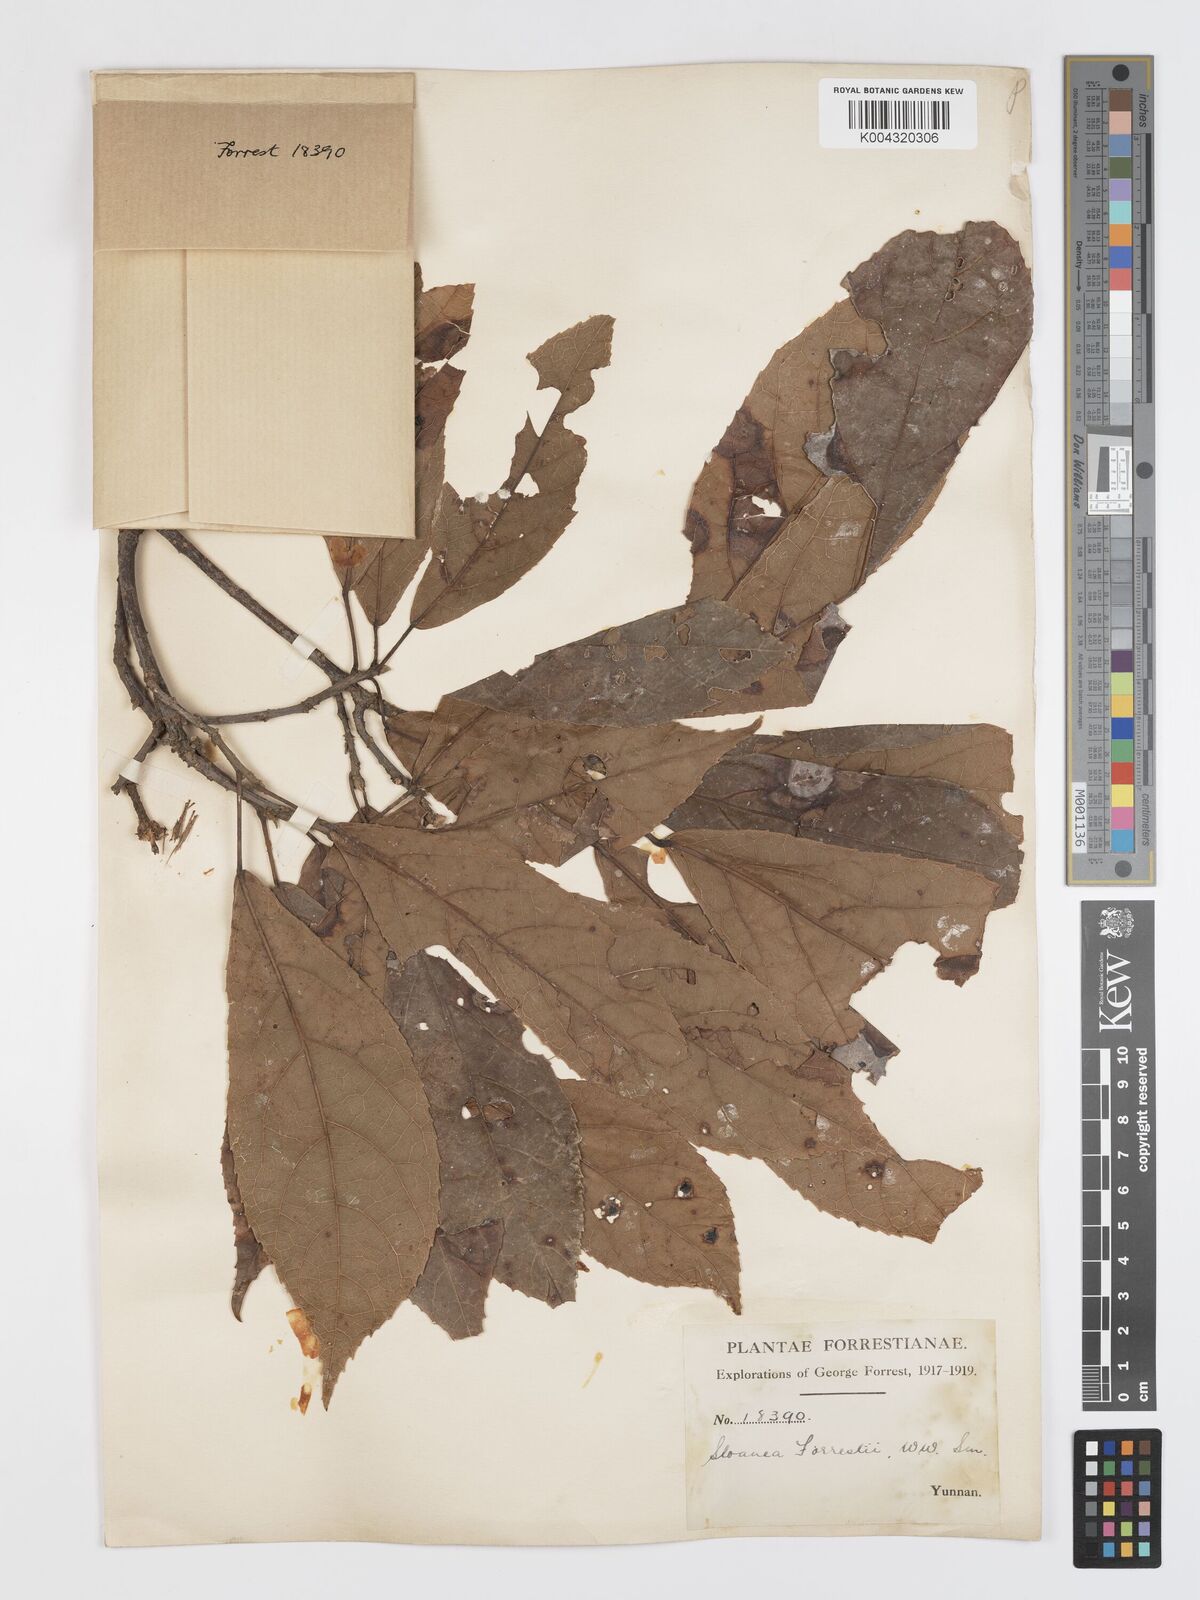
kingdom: Plantae
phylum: Tracheophyta
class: Magnoliopsida
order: Oxalidales
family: Elaeocarpaceae
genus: Sloanea
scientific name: Sloanea sterculiacea
